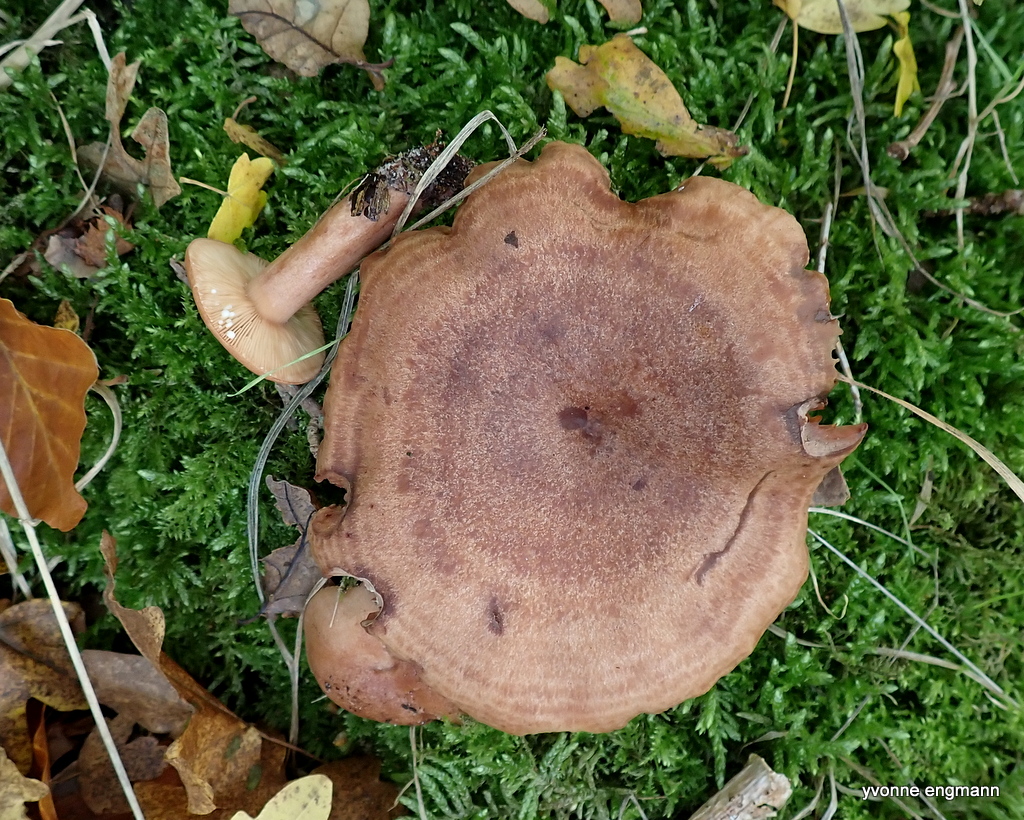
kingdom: Fungi
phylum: Basidiomycota
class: Agaricomycetes
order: Russulales
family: Russulaceae
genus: Lactarius
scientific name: Lactarius quietus
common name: ege-mælkehat
